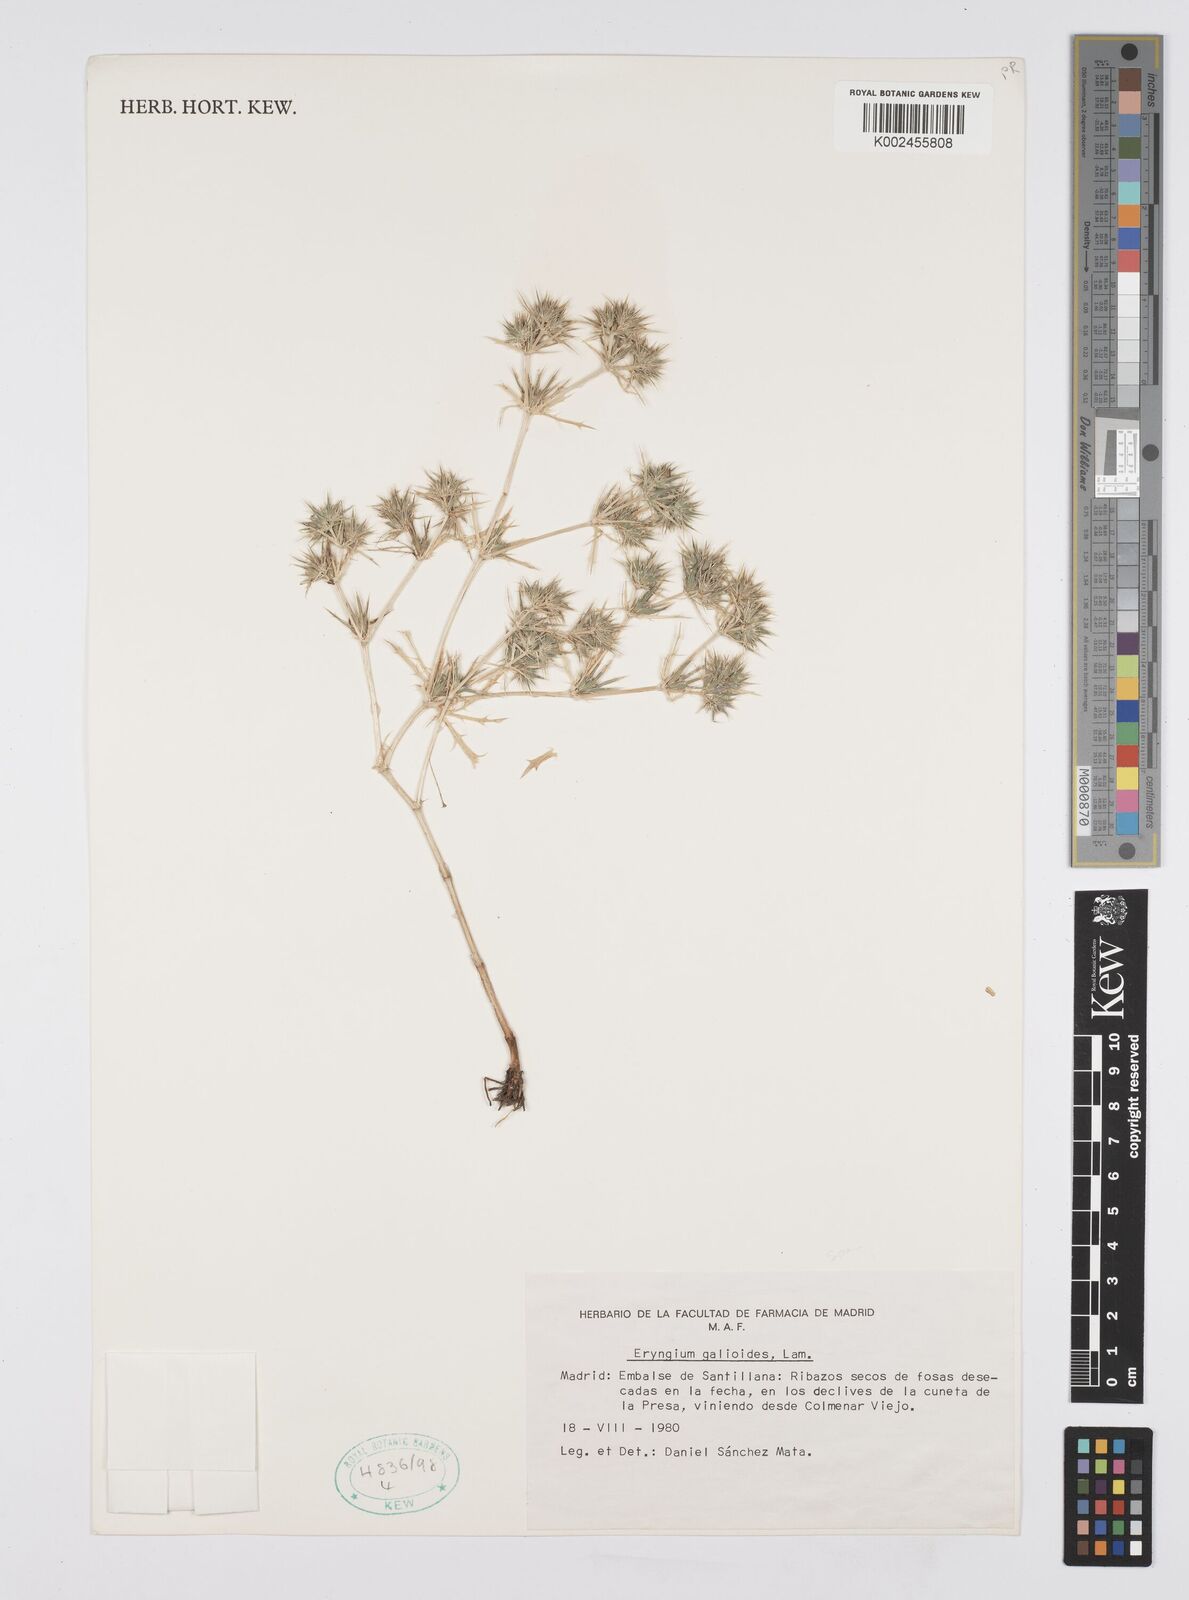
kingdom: Plantae
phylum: Tracheophyta
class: Magnoliopsida
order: Apiales
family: Apiaceae
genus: Eryngium
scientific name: Eryngium galioides
